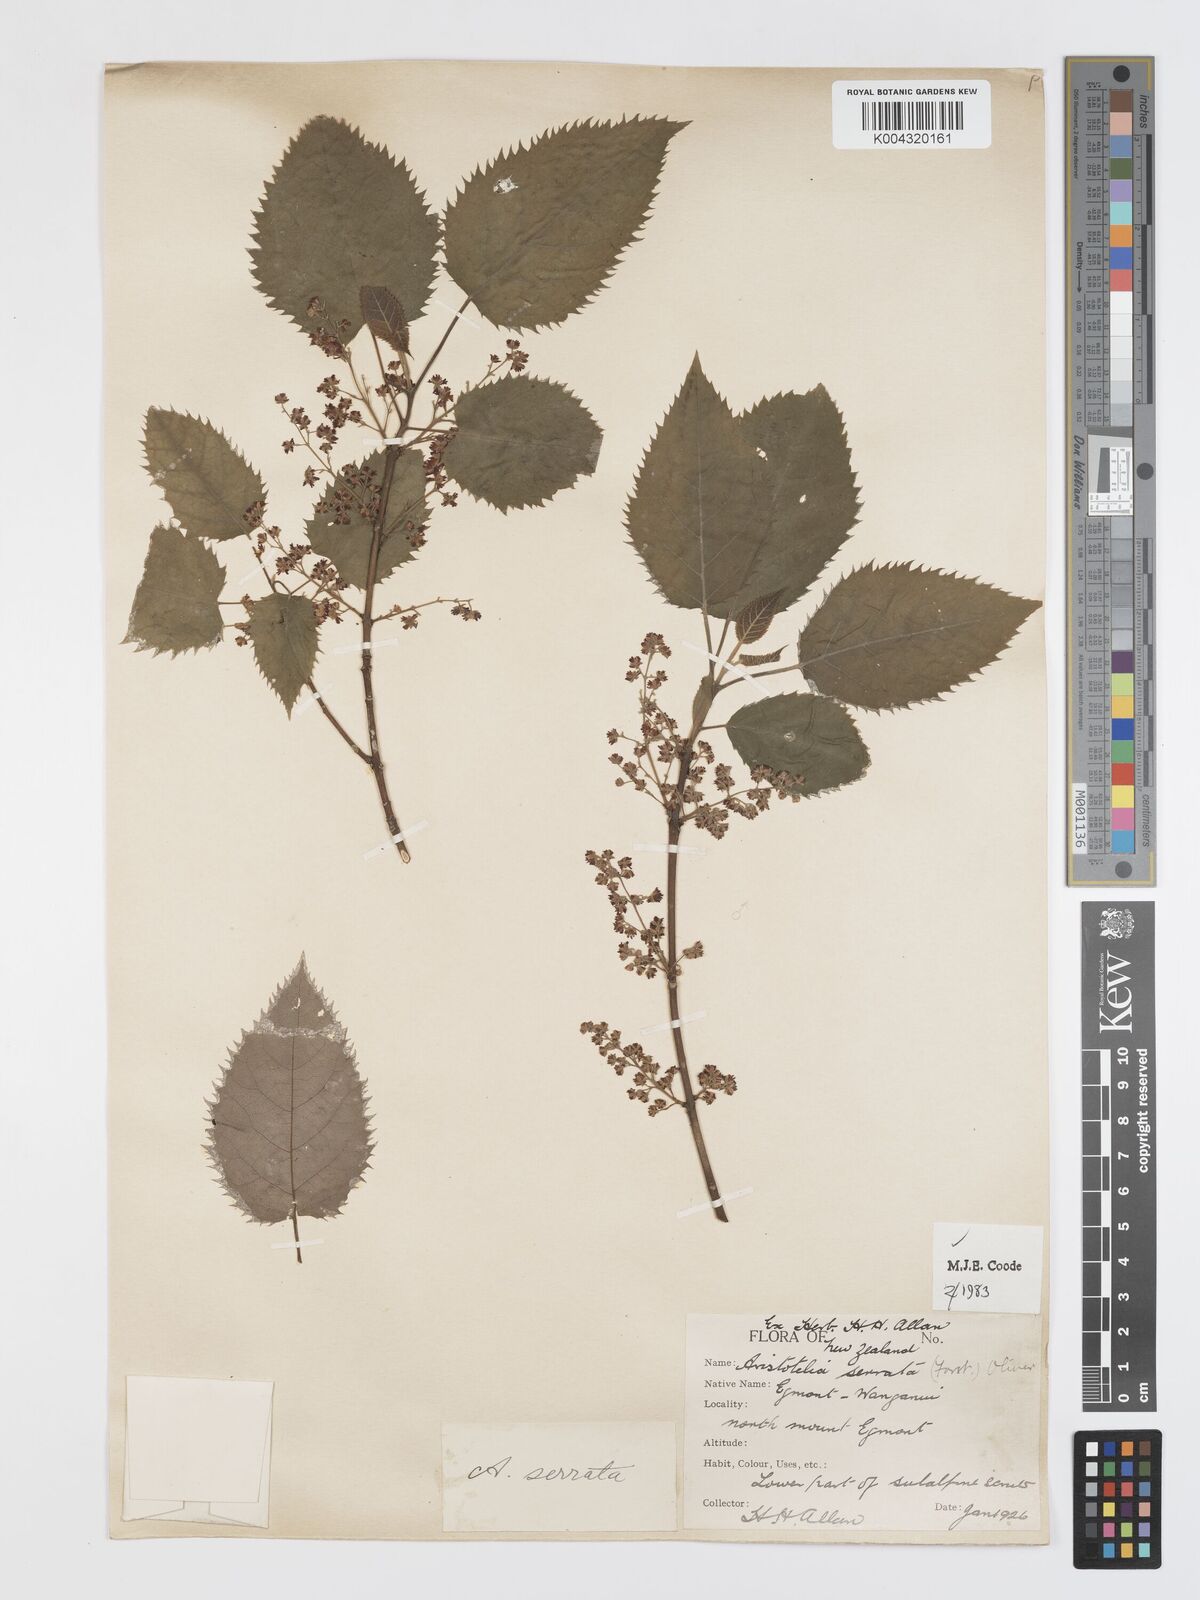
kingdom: Plantae
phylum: Tracheophyta
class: Magnoliopsida
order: Oxalidales
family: Elaeocarpaceae
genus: Aristotelia
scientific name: Aristotelia serrata
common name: New zealand wineberry
